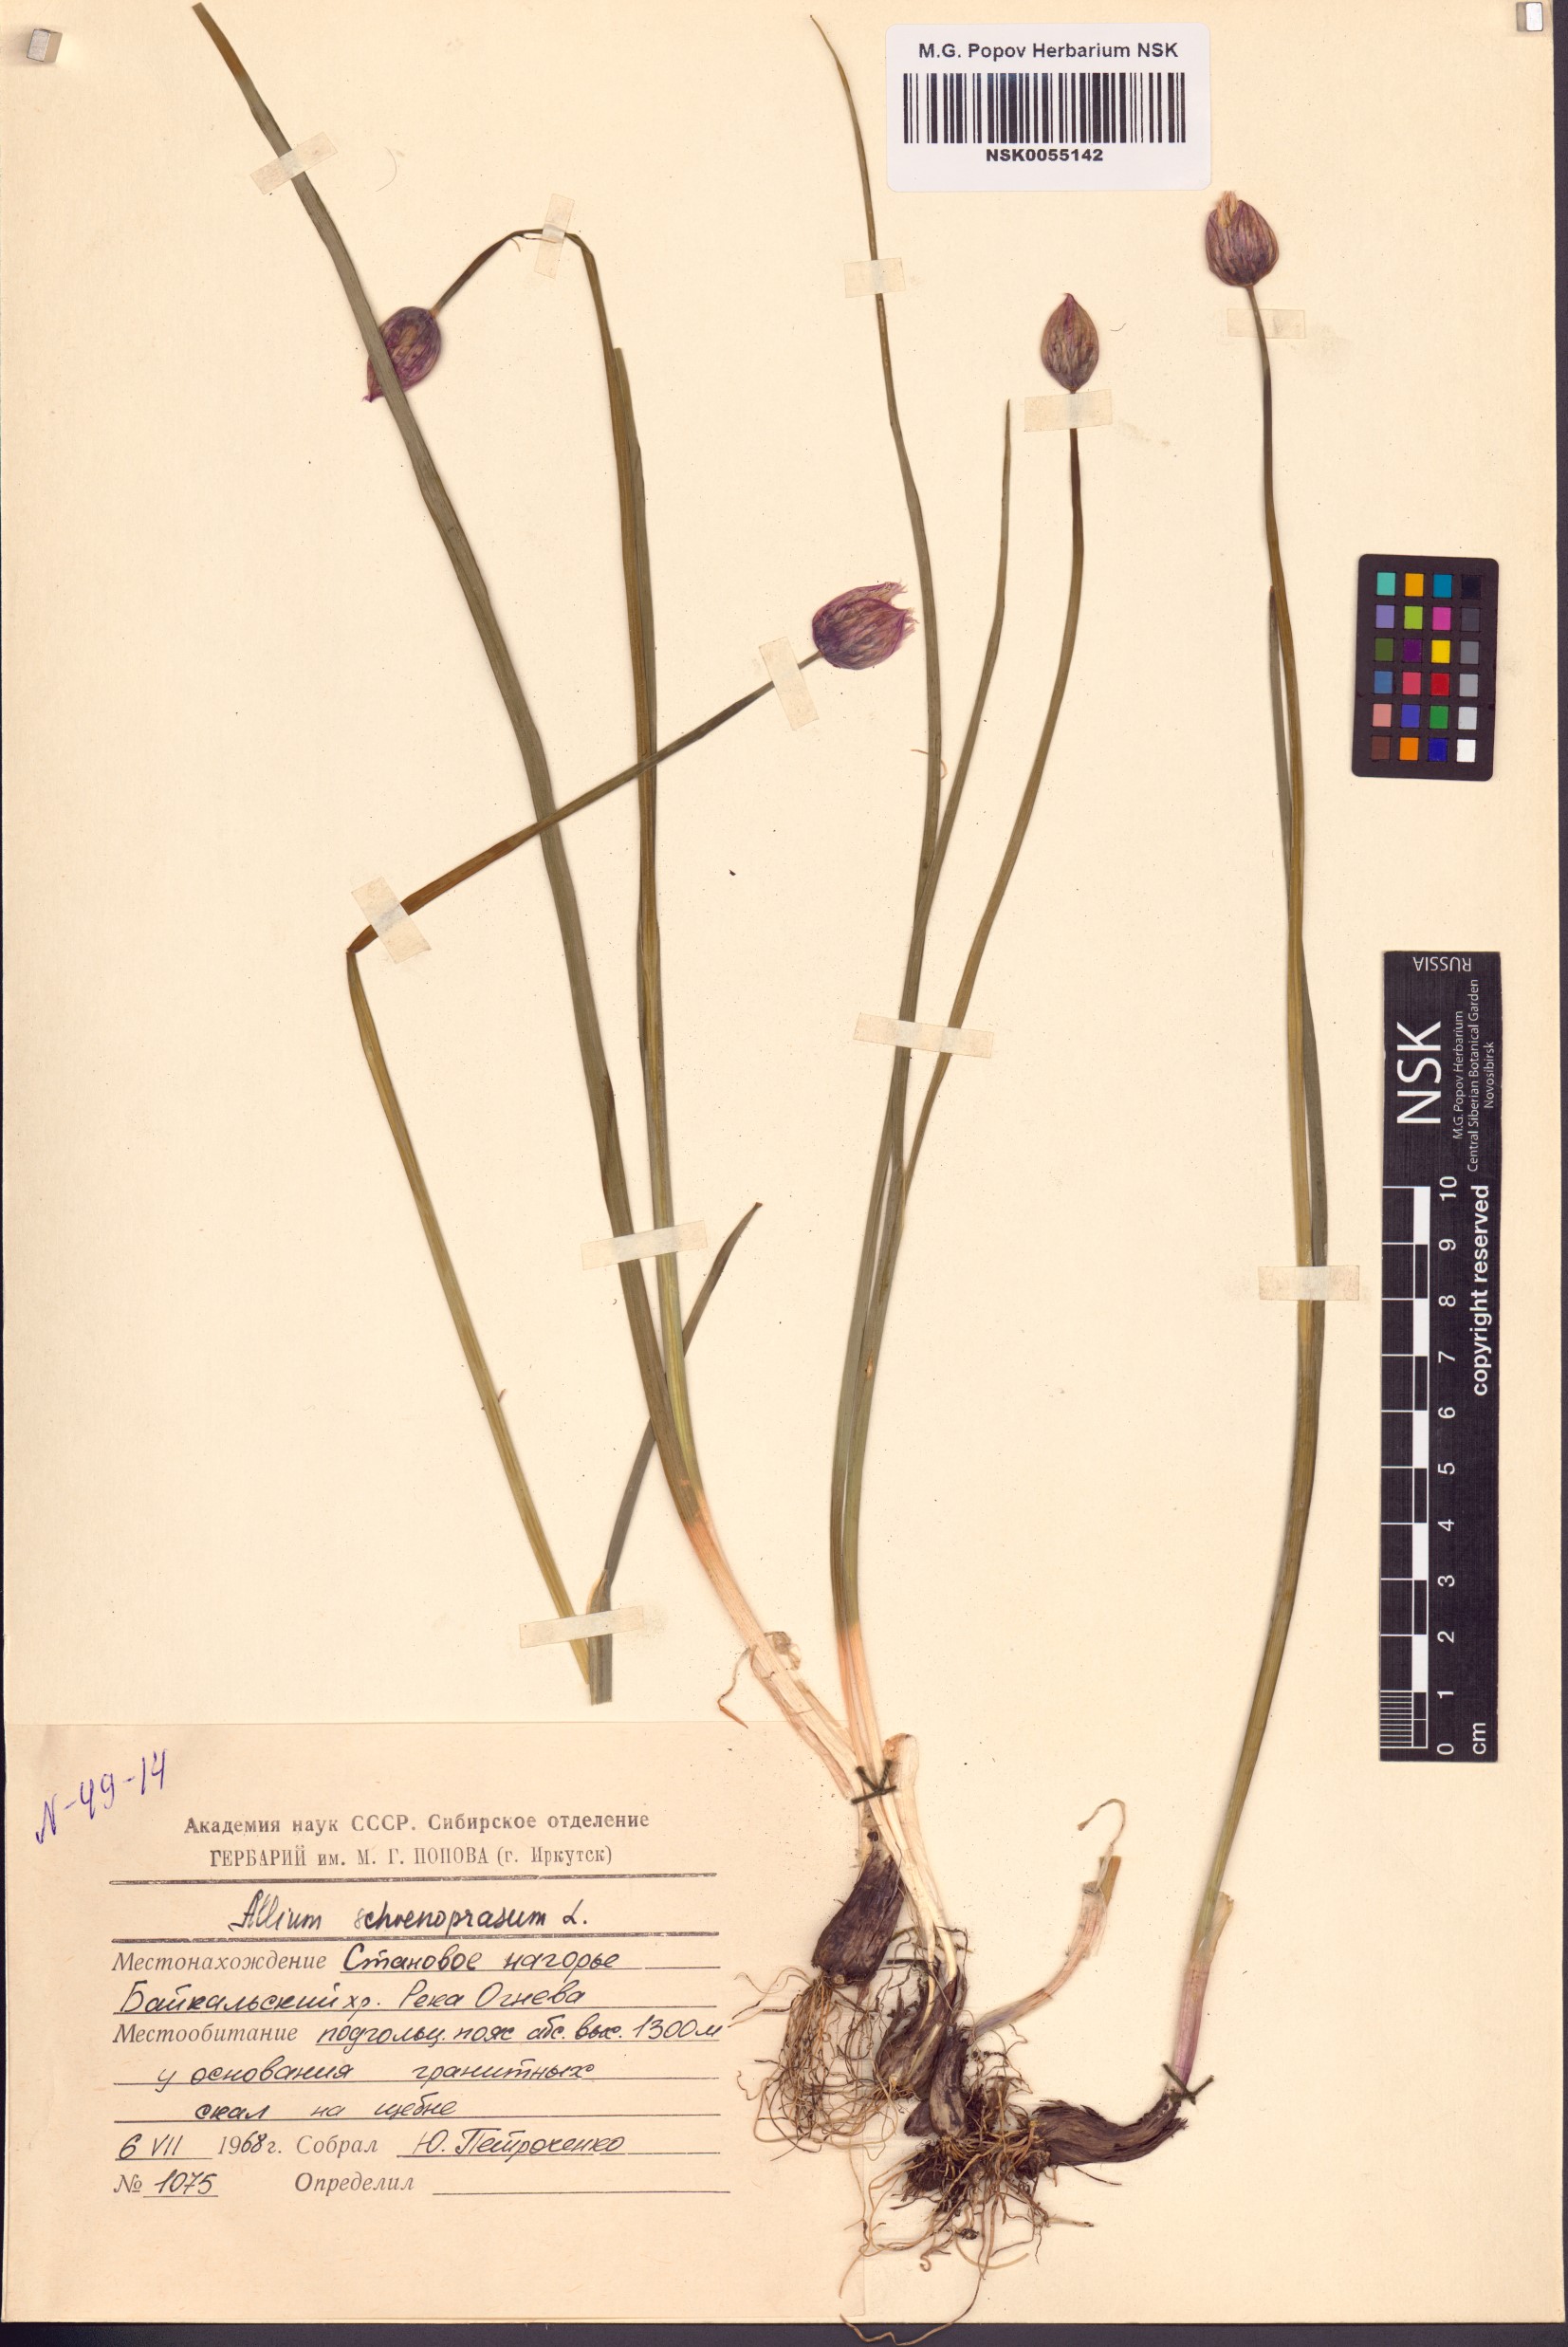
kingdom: Plantae
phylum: Tracheophyta
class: Liliopsida
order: Asparagales
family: Amaryllidaceae
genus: Allium
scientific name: Allium schoenoprasum
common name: Chives
